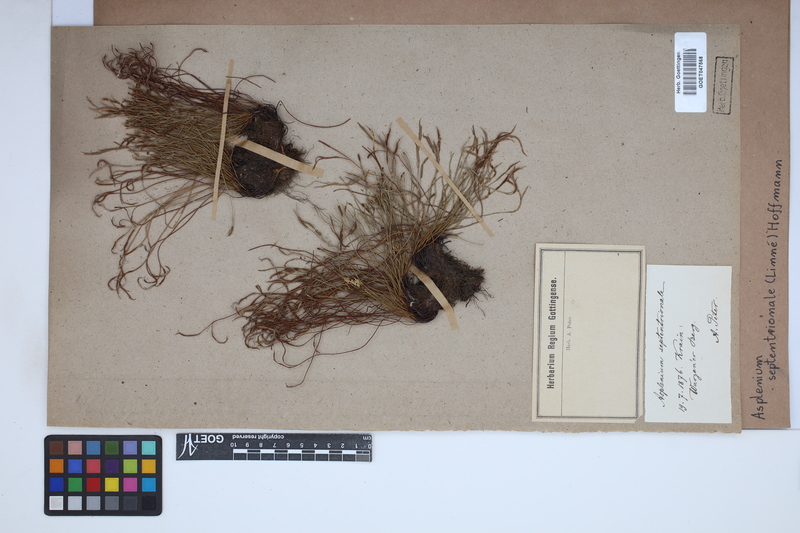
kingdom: Plantae
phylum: Tracheophyta
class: Polypodiopsida
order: Polypodiales
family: Aspleniaceae
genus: Asplenium
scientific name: Asplenium septentrionale
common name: Forked spleenwort
